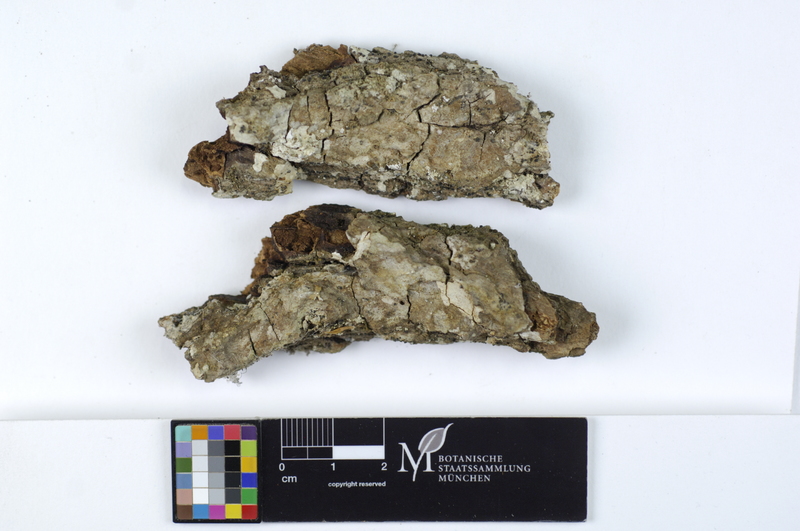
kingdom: Fungi
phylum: Basidiomycota
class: Agaricomycetes
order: Agaricales
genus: Dendrothele
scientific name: Dendrothele commixta
